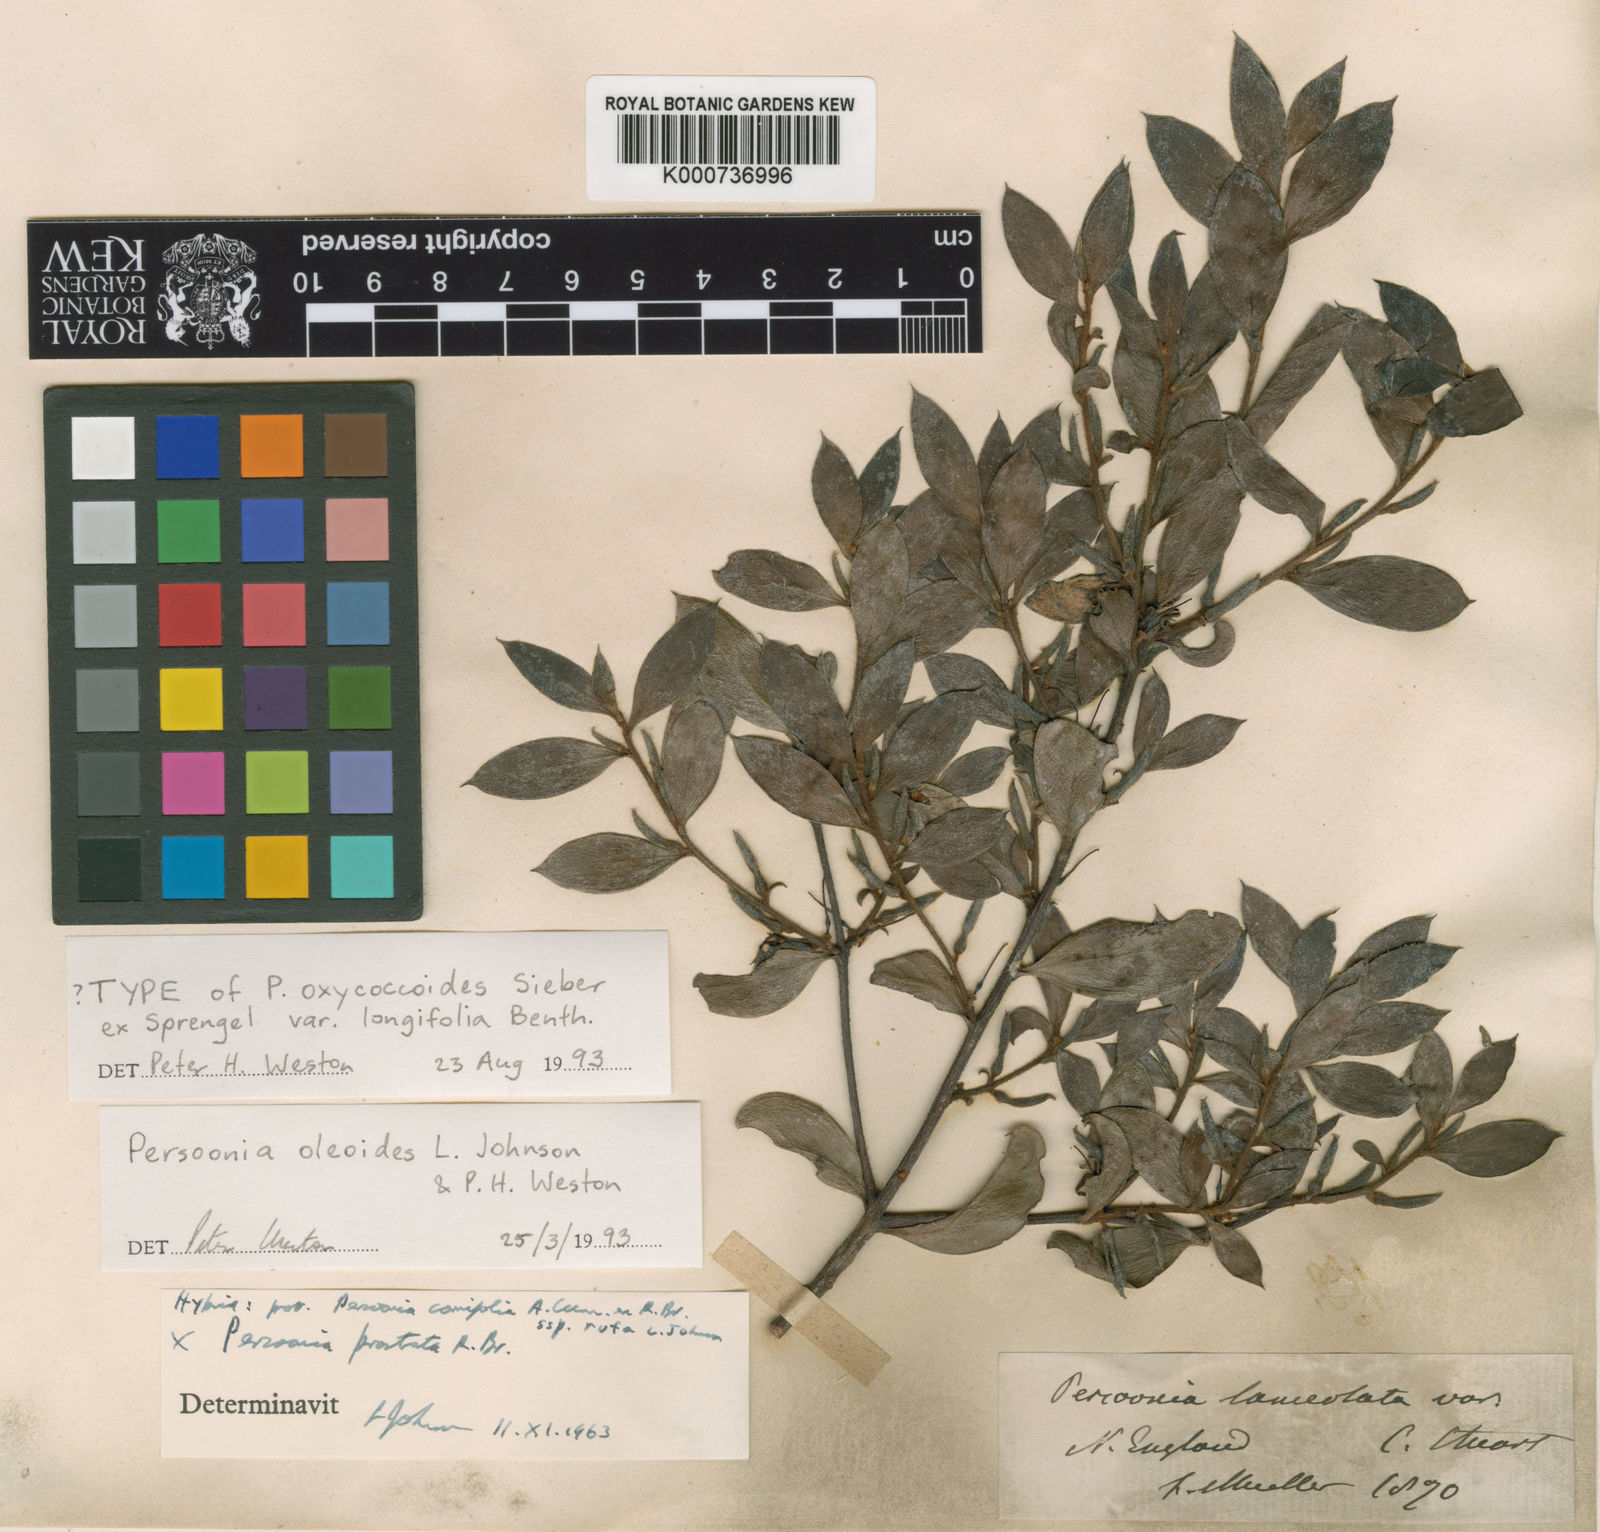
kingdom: Plantae
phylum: Tracheophyta
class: Magnoliopsida
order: Proteales
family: Proteaceae
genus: Persoonia
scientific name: Persoonia oleoides
